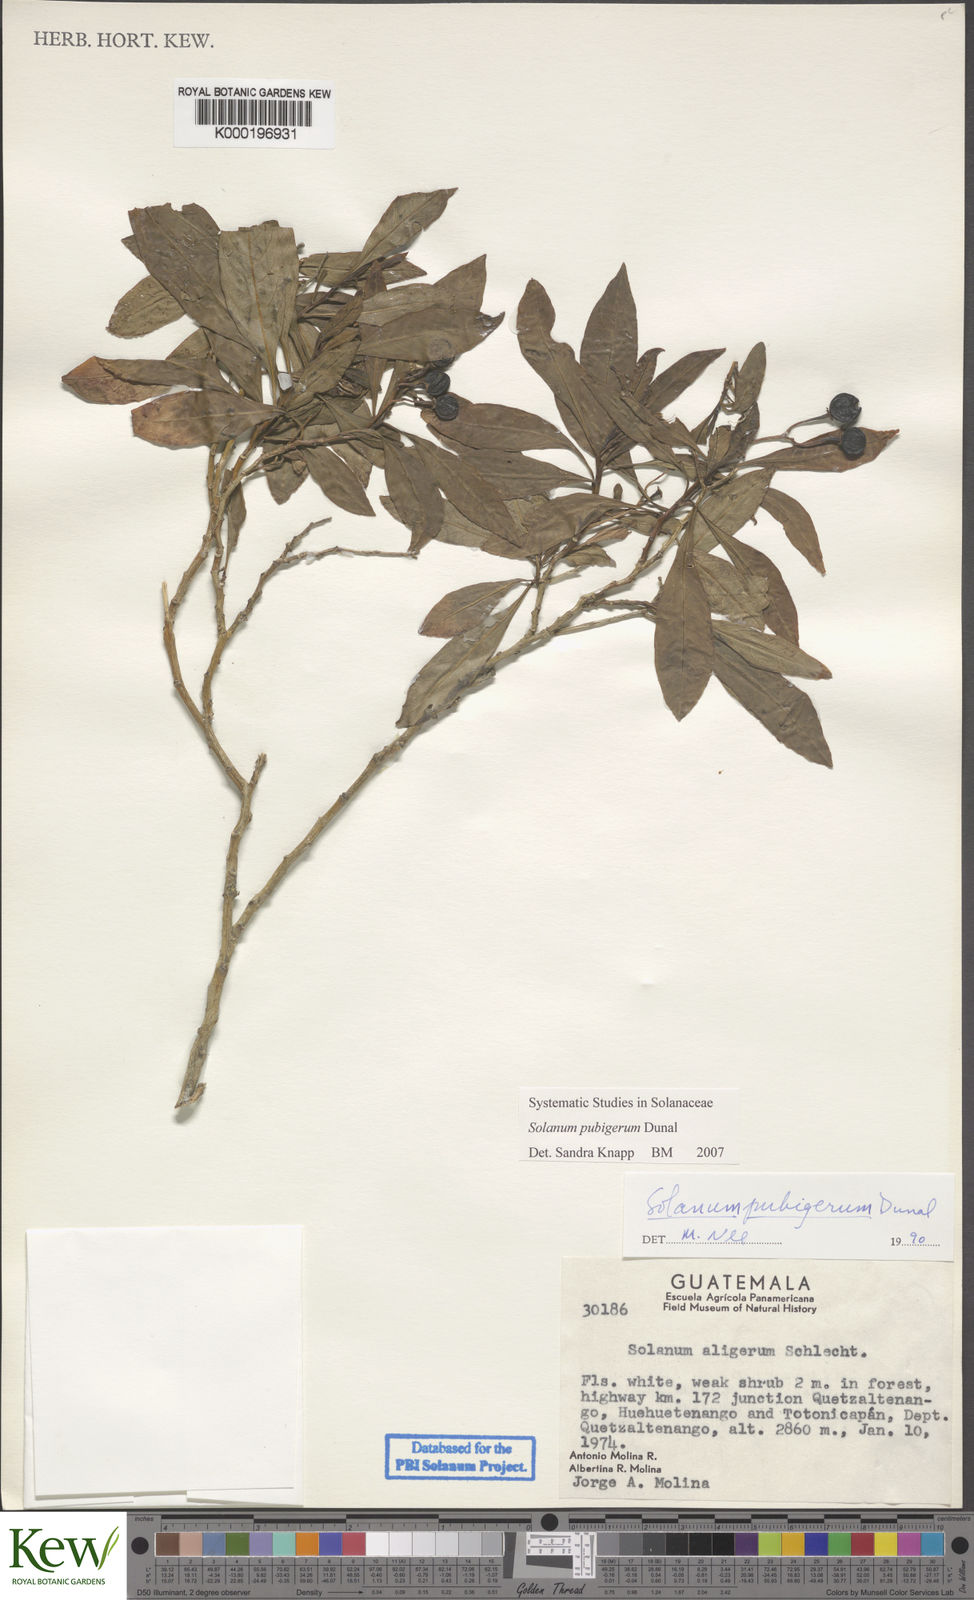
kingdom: Plantae
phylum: Tracheophyta
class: Magnoliopsida
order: Solanales
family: Solanaceae
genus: Solanum
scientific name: Solanum pubigerum
